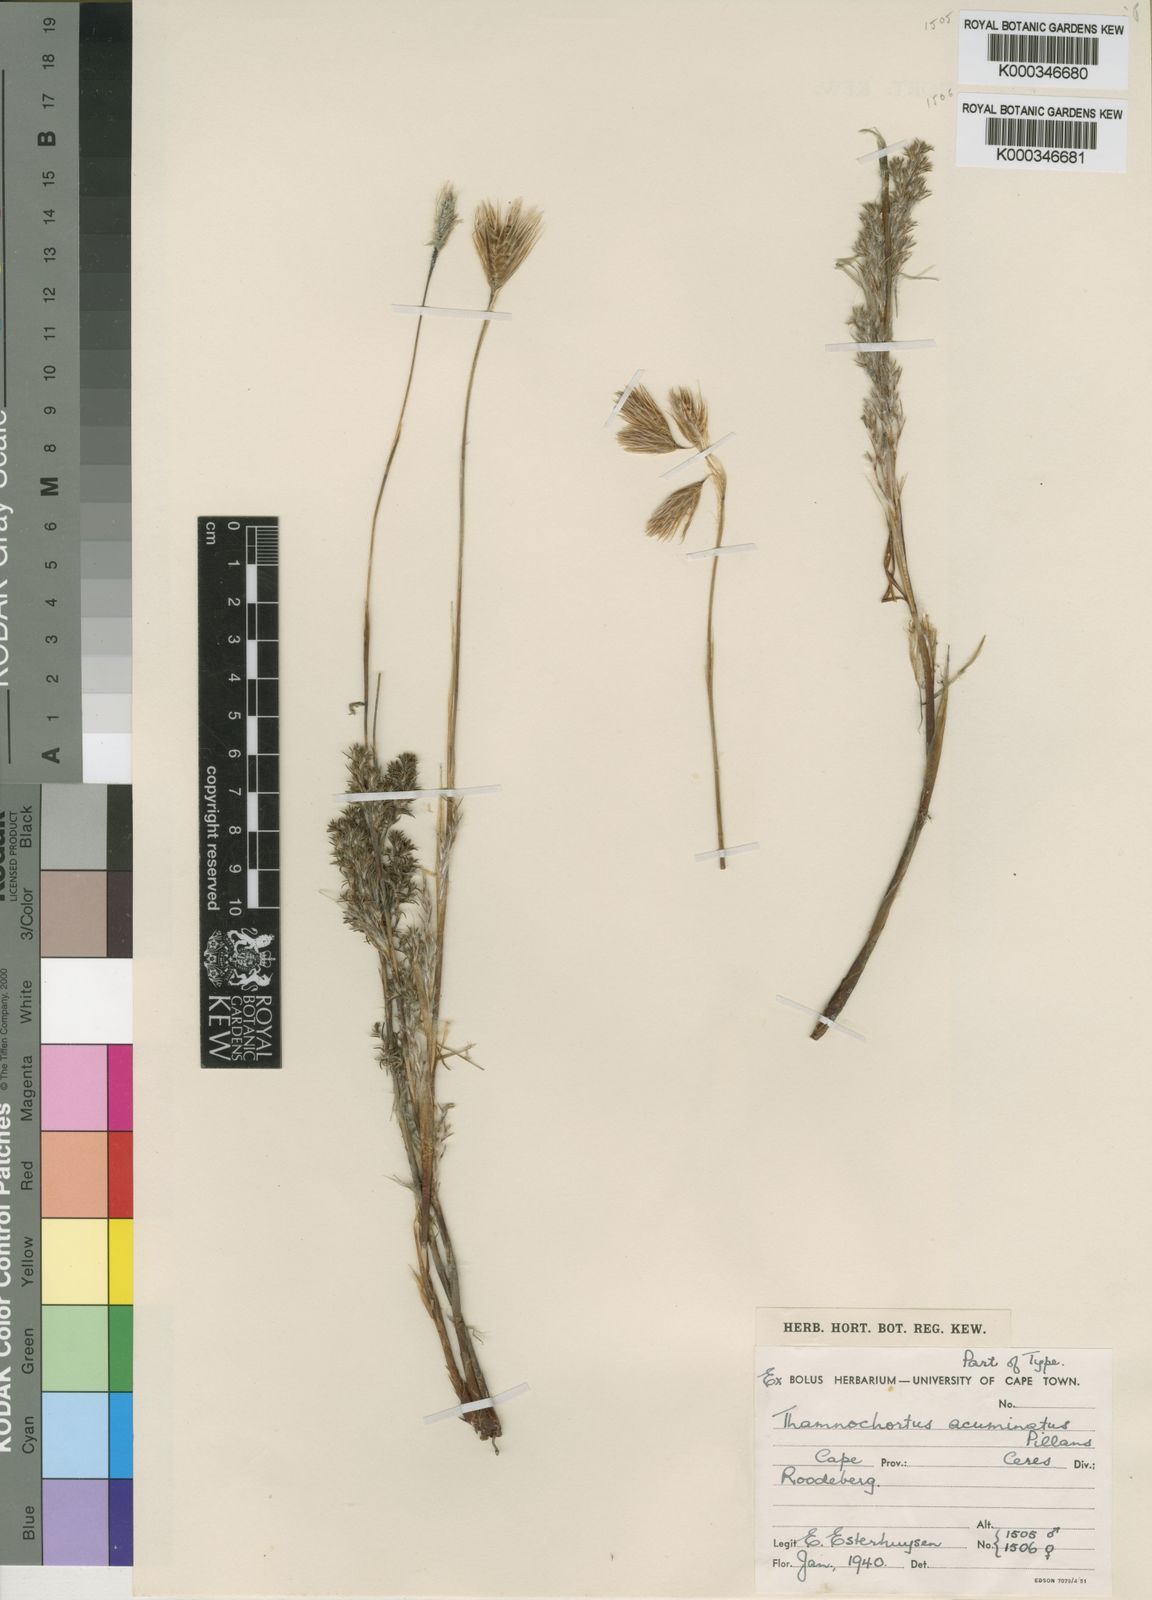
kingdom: Plantae
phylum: Tracheophyta
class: Liliopsida
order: Poales
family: Restionaceae
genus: Thamnochortus
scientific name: Thamnochortus acuminatus
